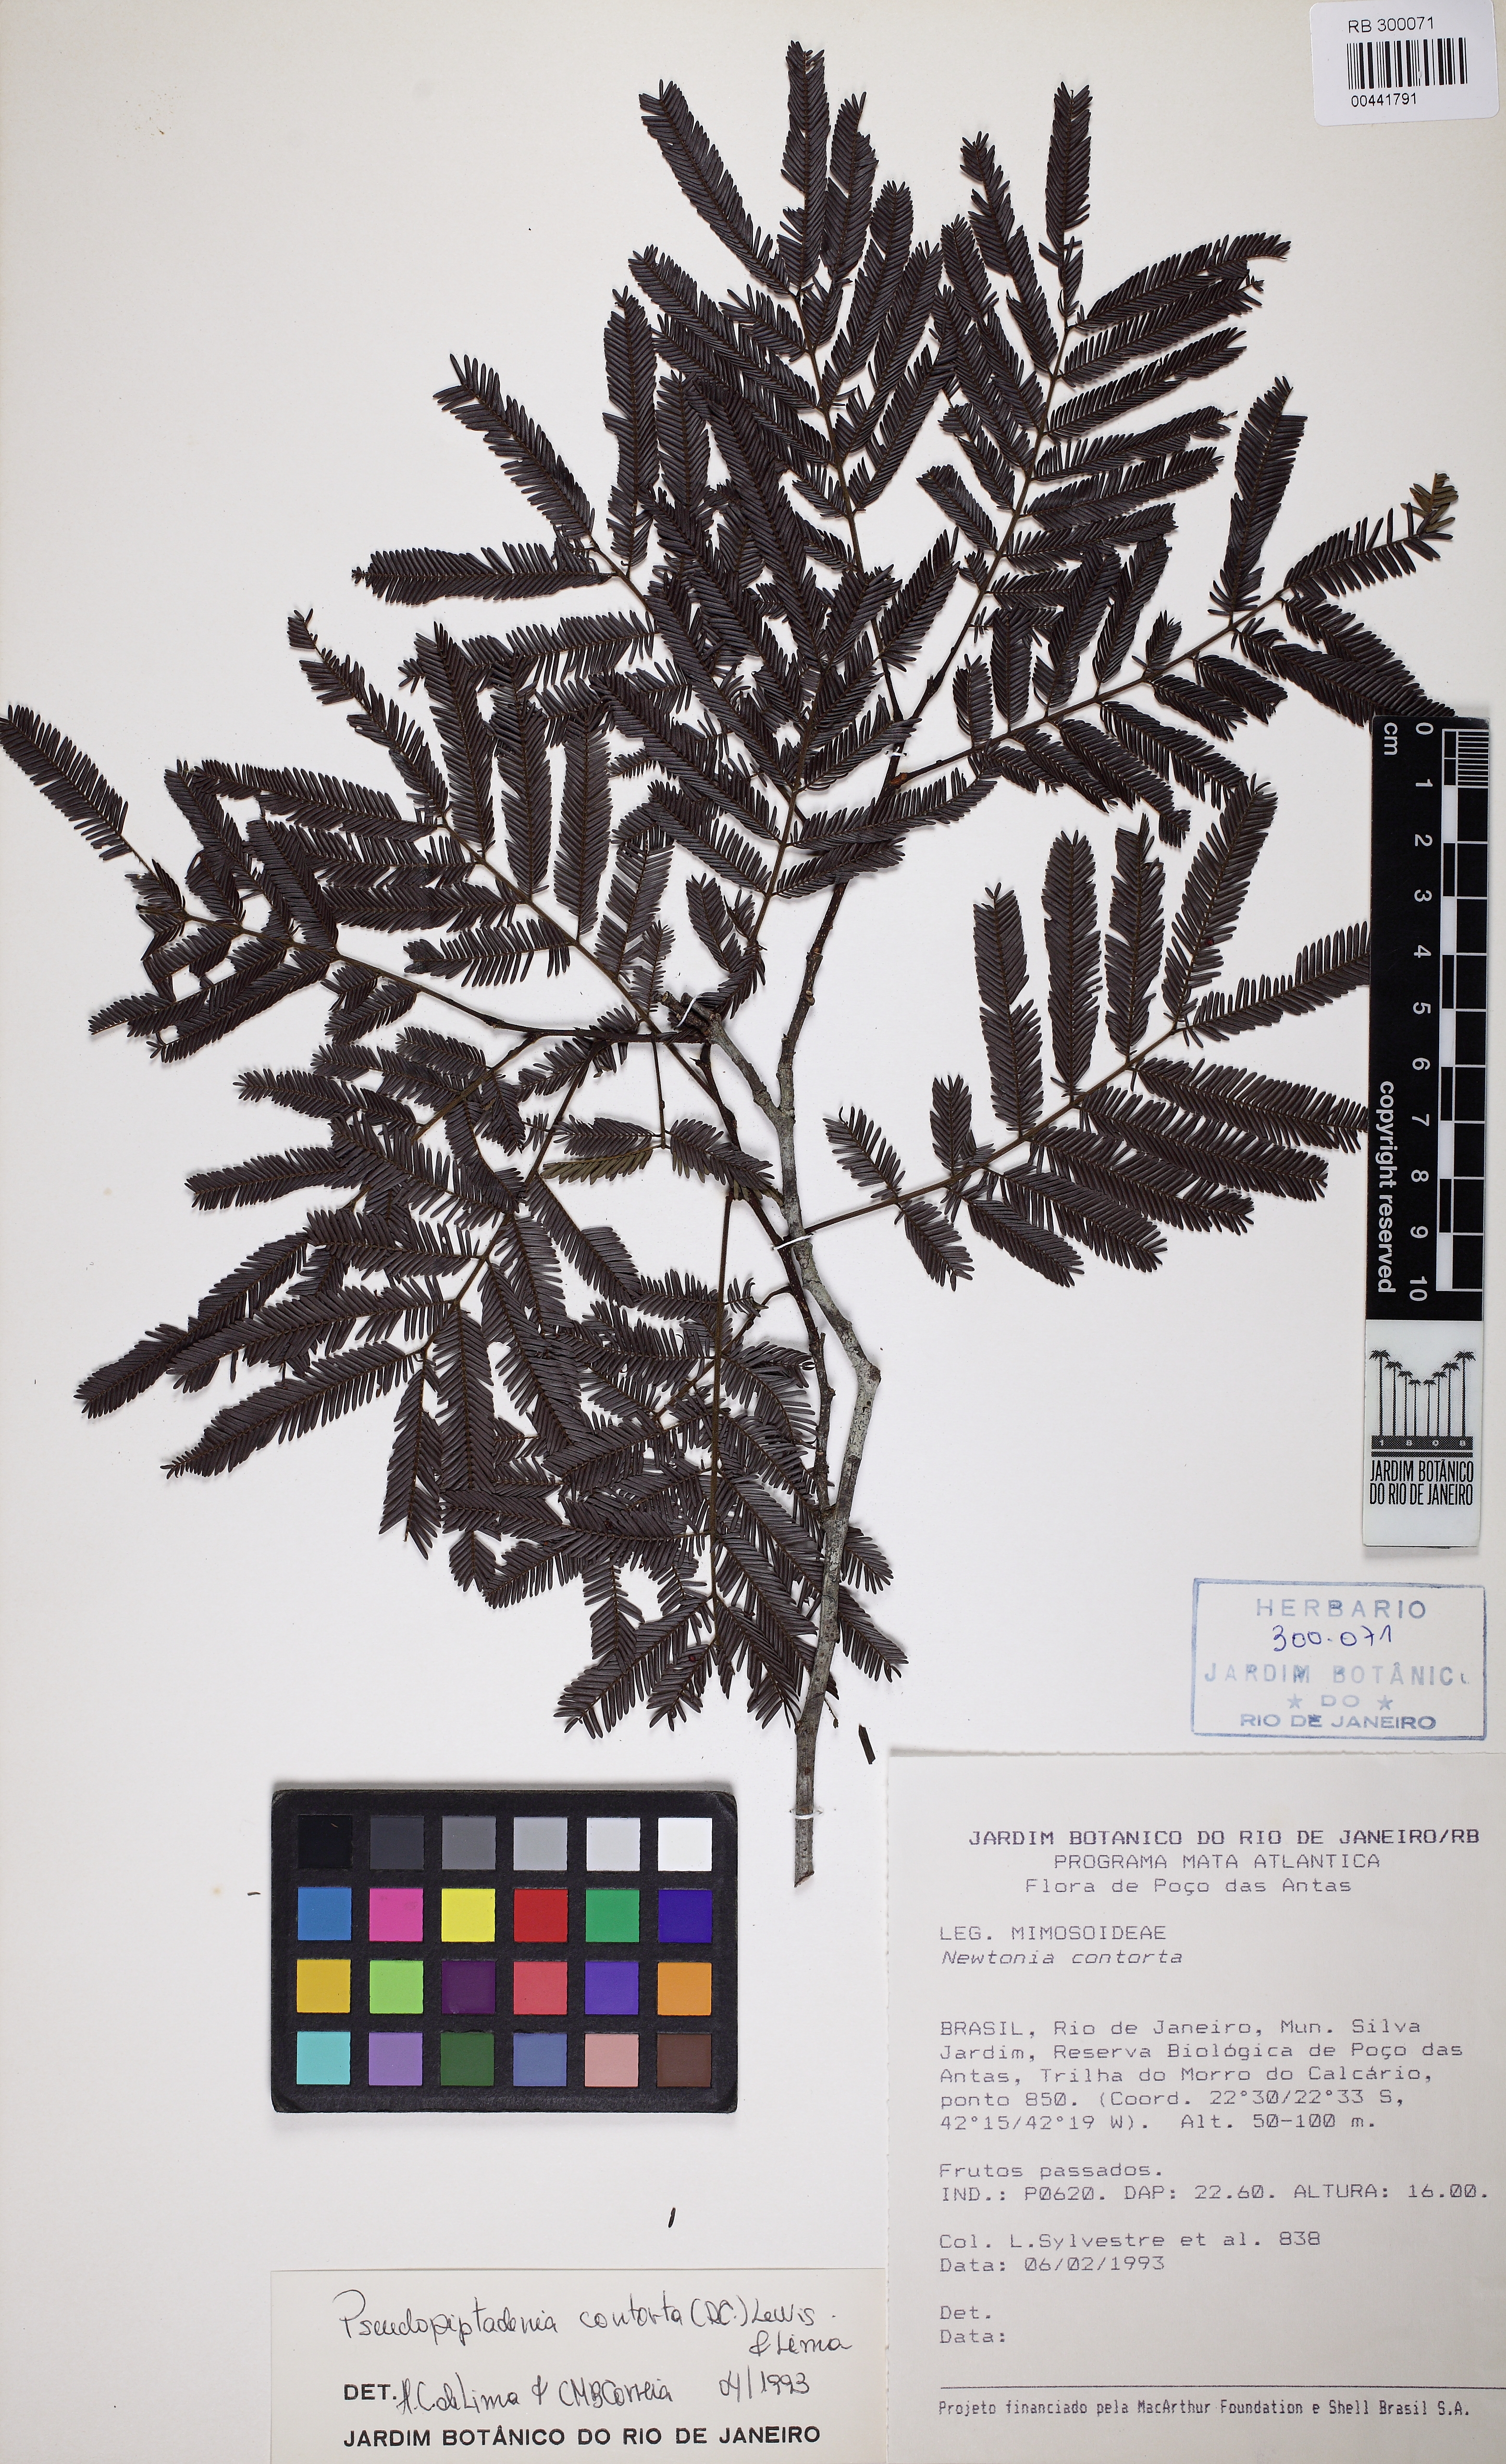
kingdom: Plantae
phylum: Tracheophyta
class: Magnoliopsida
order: Fabales
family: Fabaceae
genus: Pseudopiptadenia
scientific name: Pseudopiptadenia contorta
